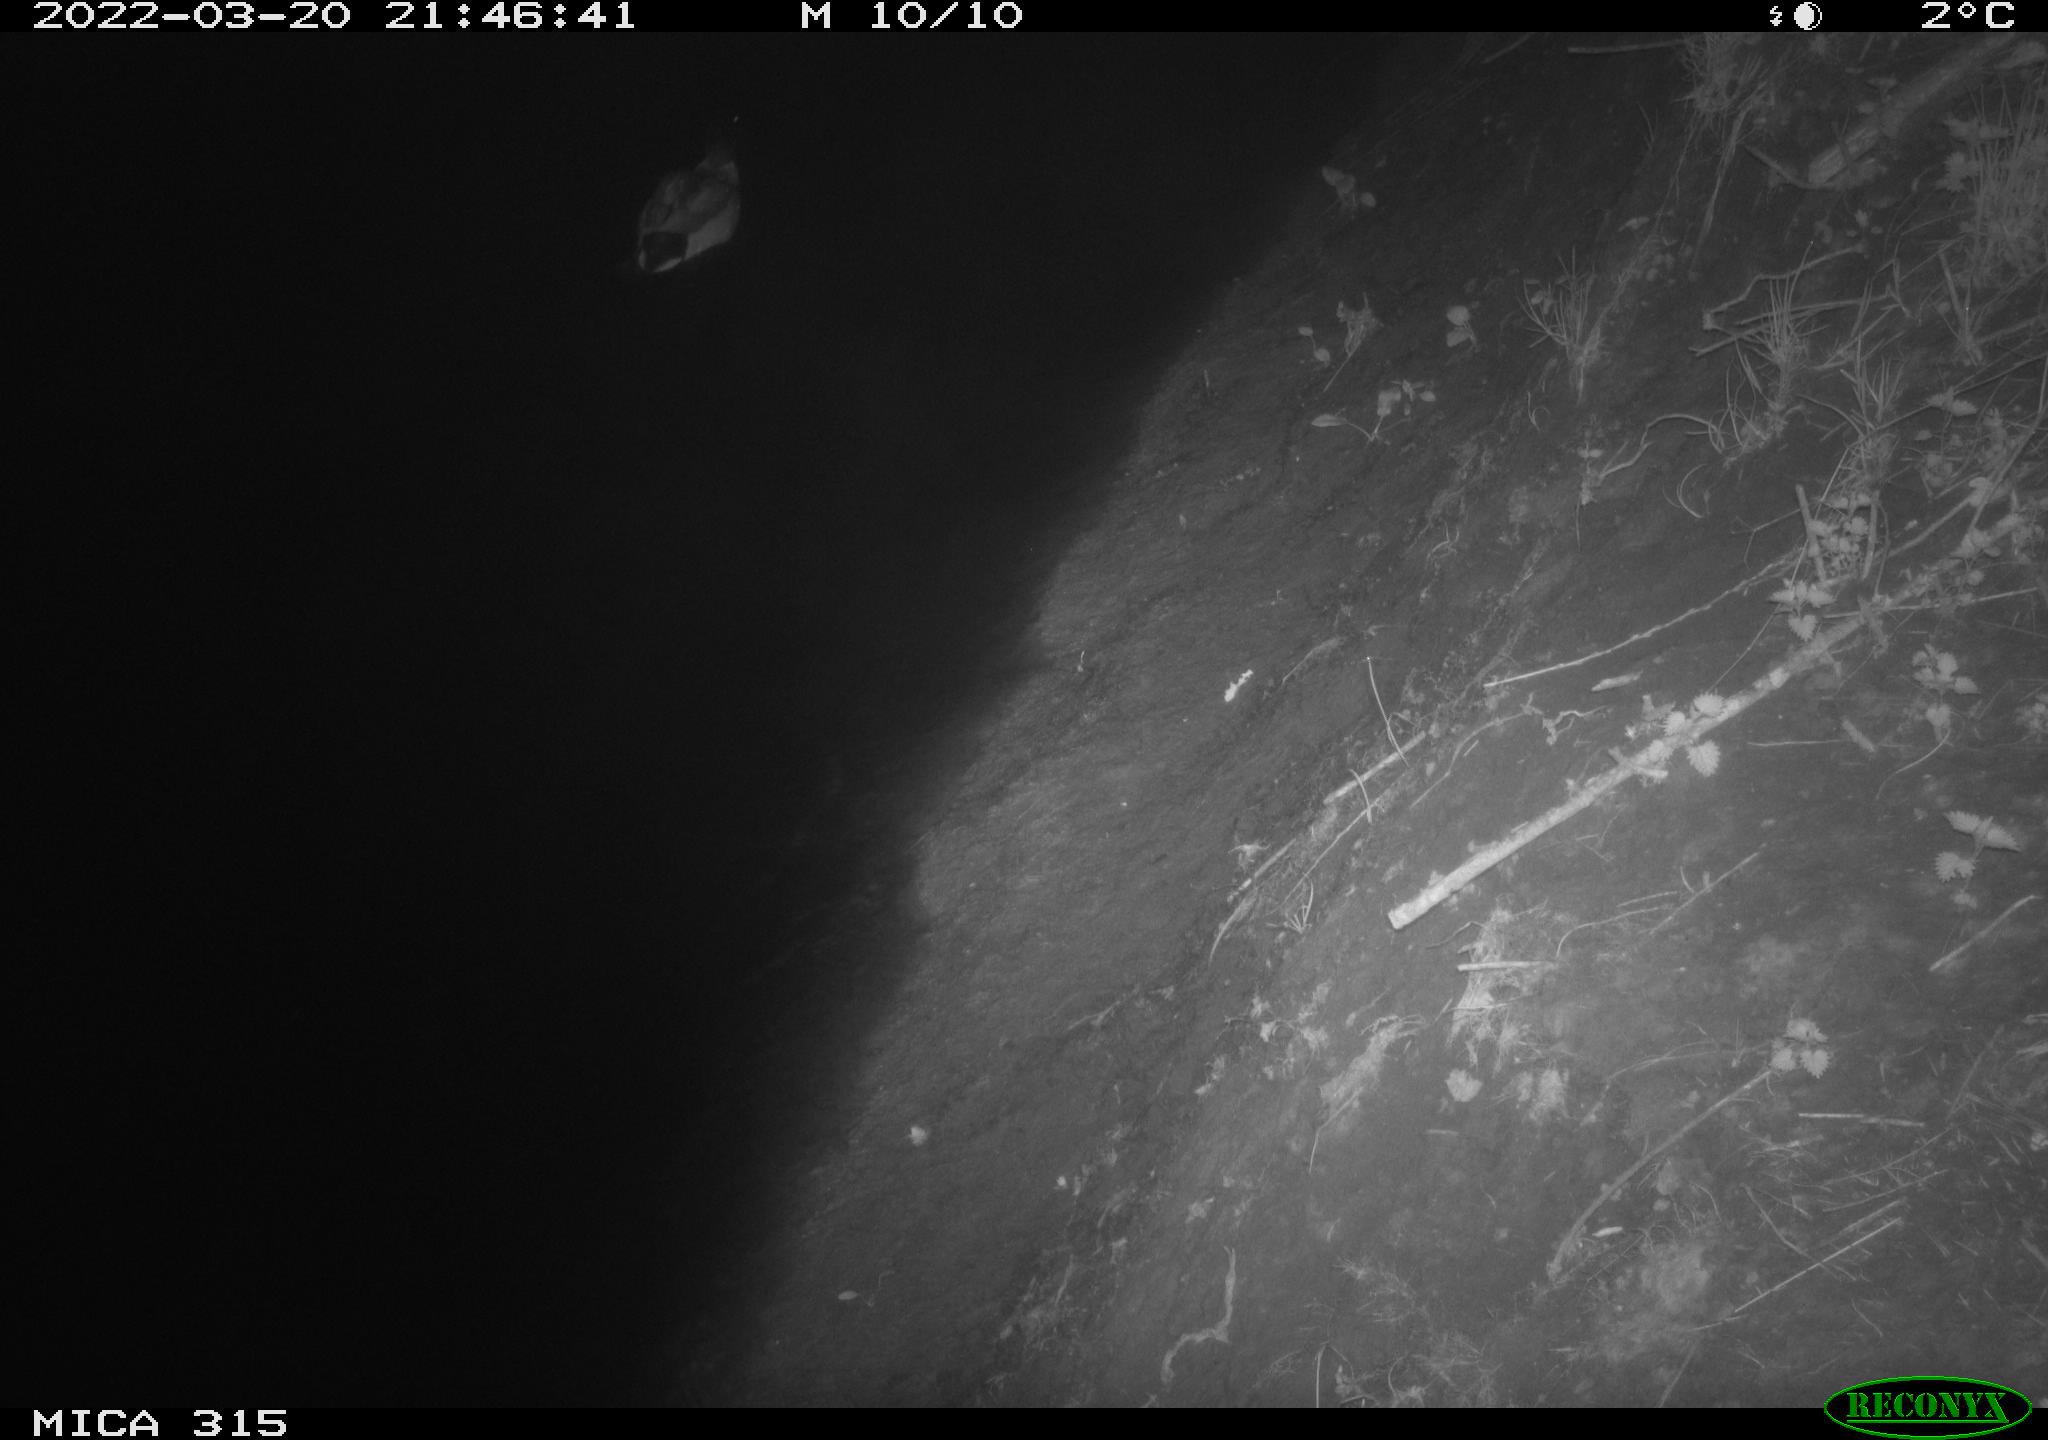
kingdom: Animalia
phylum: Chordata
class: Mammalia
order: Rodentia
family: Muridae
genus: Rattus
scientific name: Rattus norvegicus
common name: Brown rat
